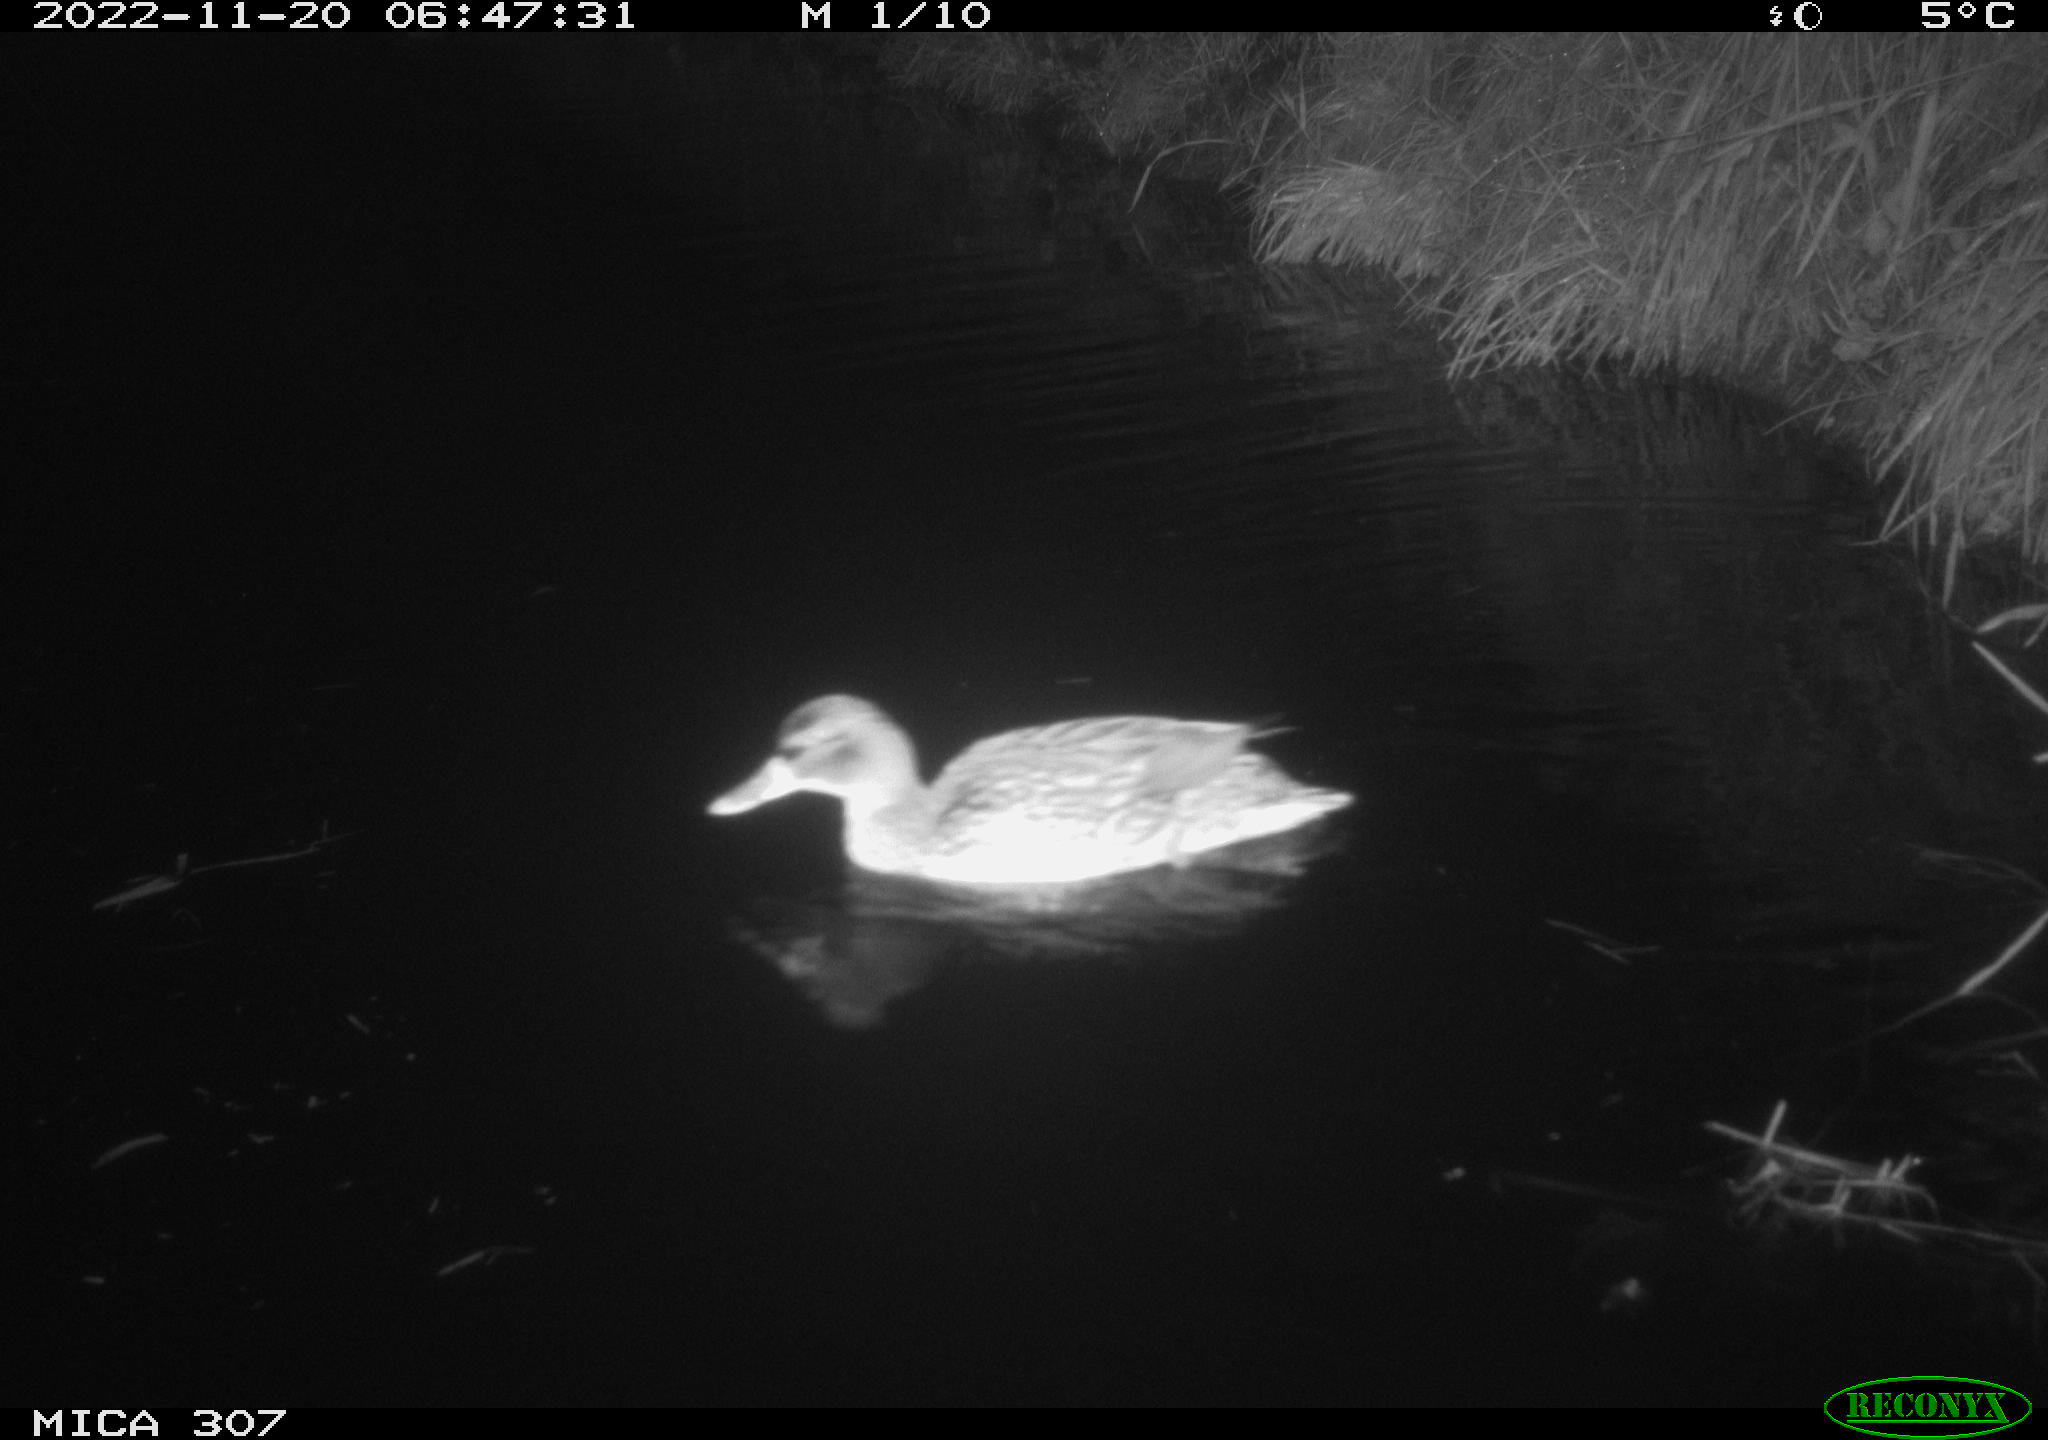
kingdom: Animalia
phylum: Chordata
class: Aves
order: Anseriformes
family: Anatidae
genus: Anas
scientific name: Anas
